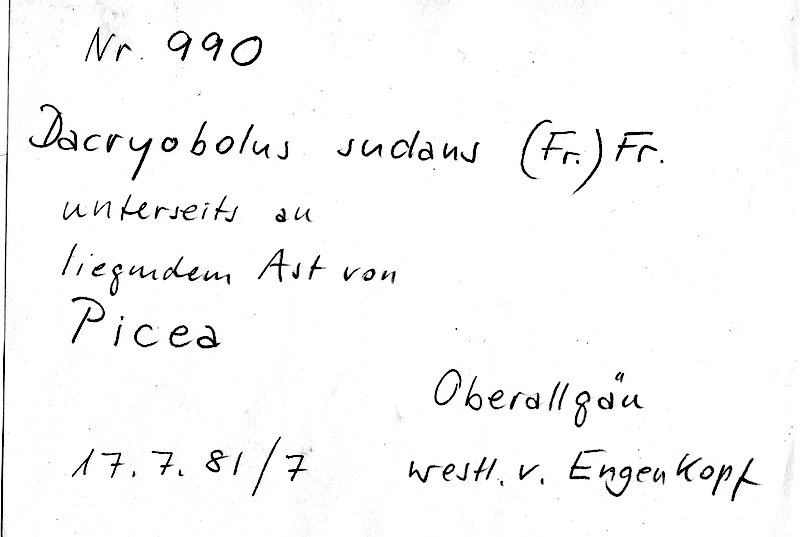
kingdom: Fungi
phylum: Basidiomycota
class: Agaricomycetes
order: Polyporales
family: Dacryobolaceae
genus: Dacryobolus
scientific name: Dacryobolus sudans
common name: Weeping toothcrust
